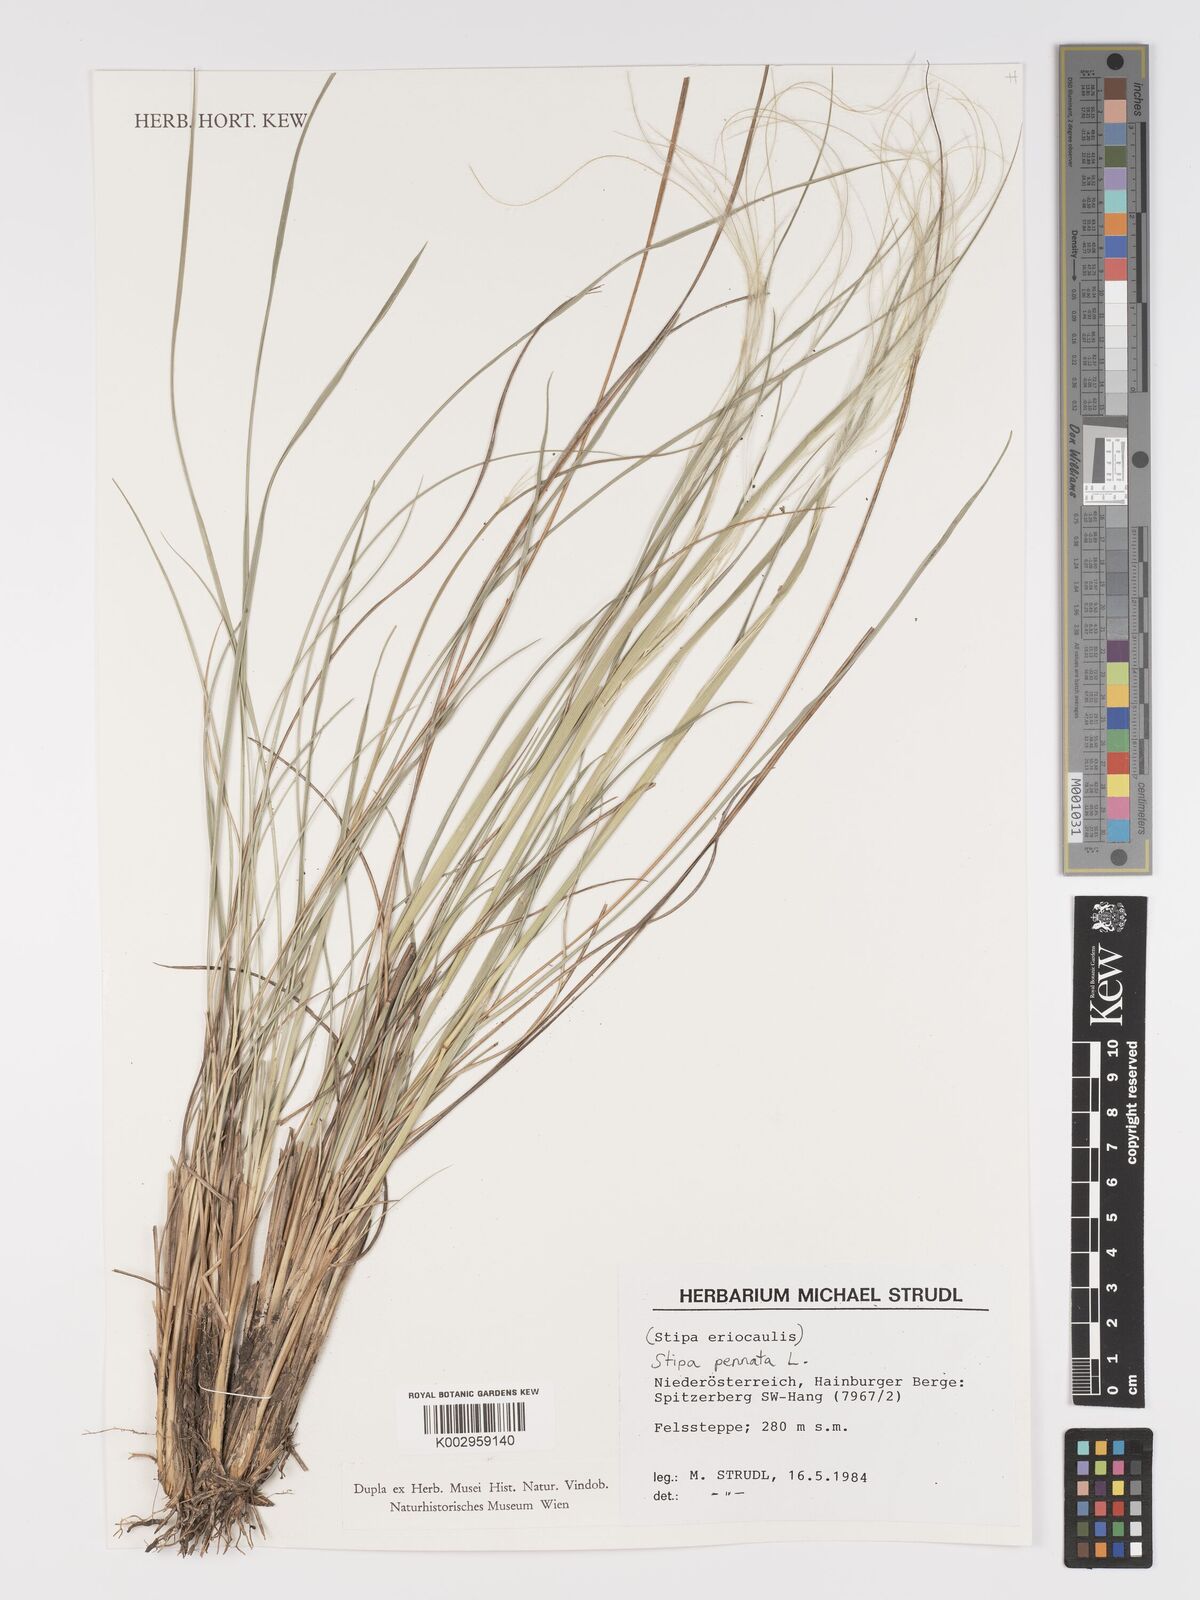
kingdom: Plantae
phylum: Tracheophyta
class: Liliopsida
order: Poales
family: Poaceae
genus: Stipa
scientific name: Stipa pennata
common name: European feather grass
